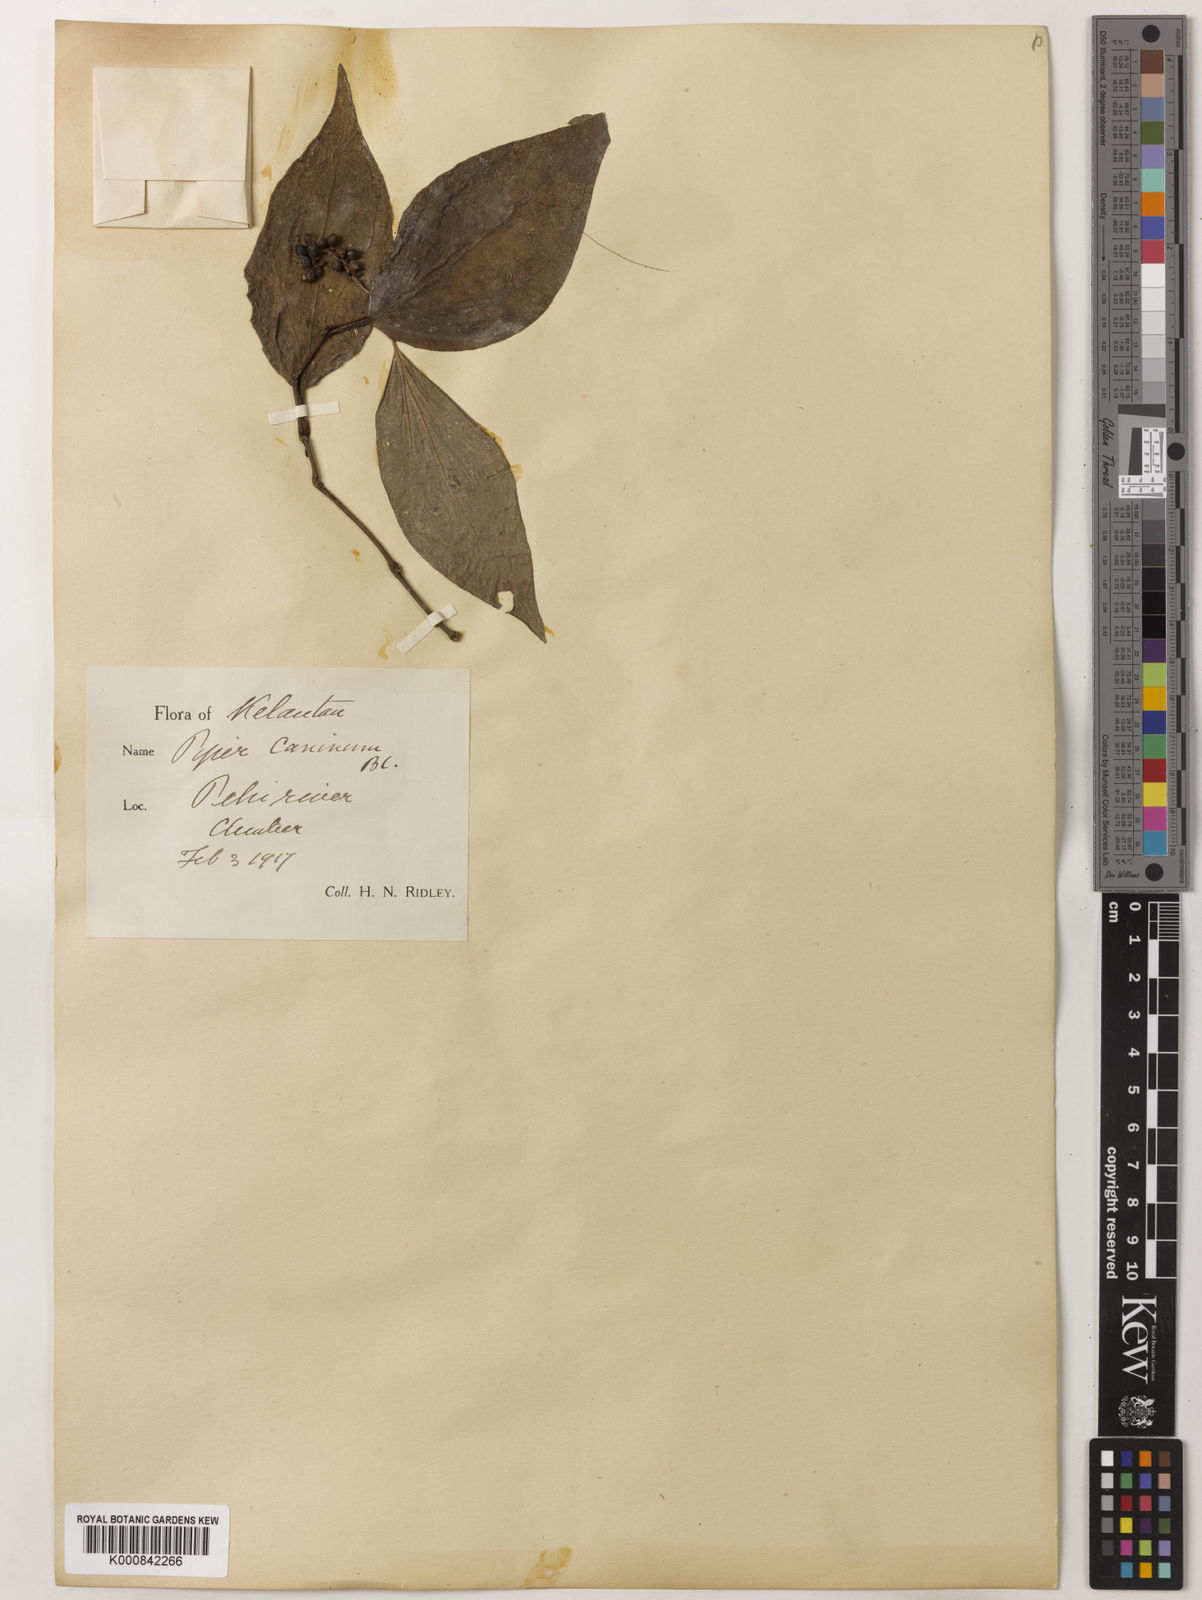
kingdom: Plantae
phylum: Tracheophyta
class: Magnoliopsida
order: Piperales
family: Piperaceae
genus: Piper
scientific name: Piper lanatum
